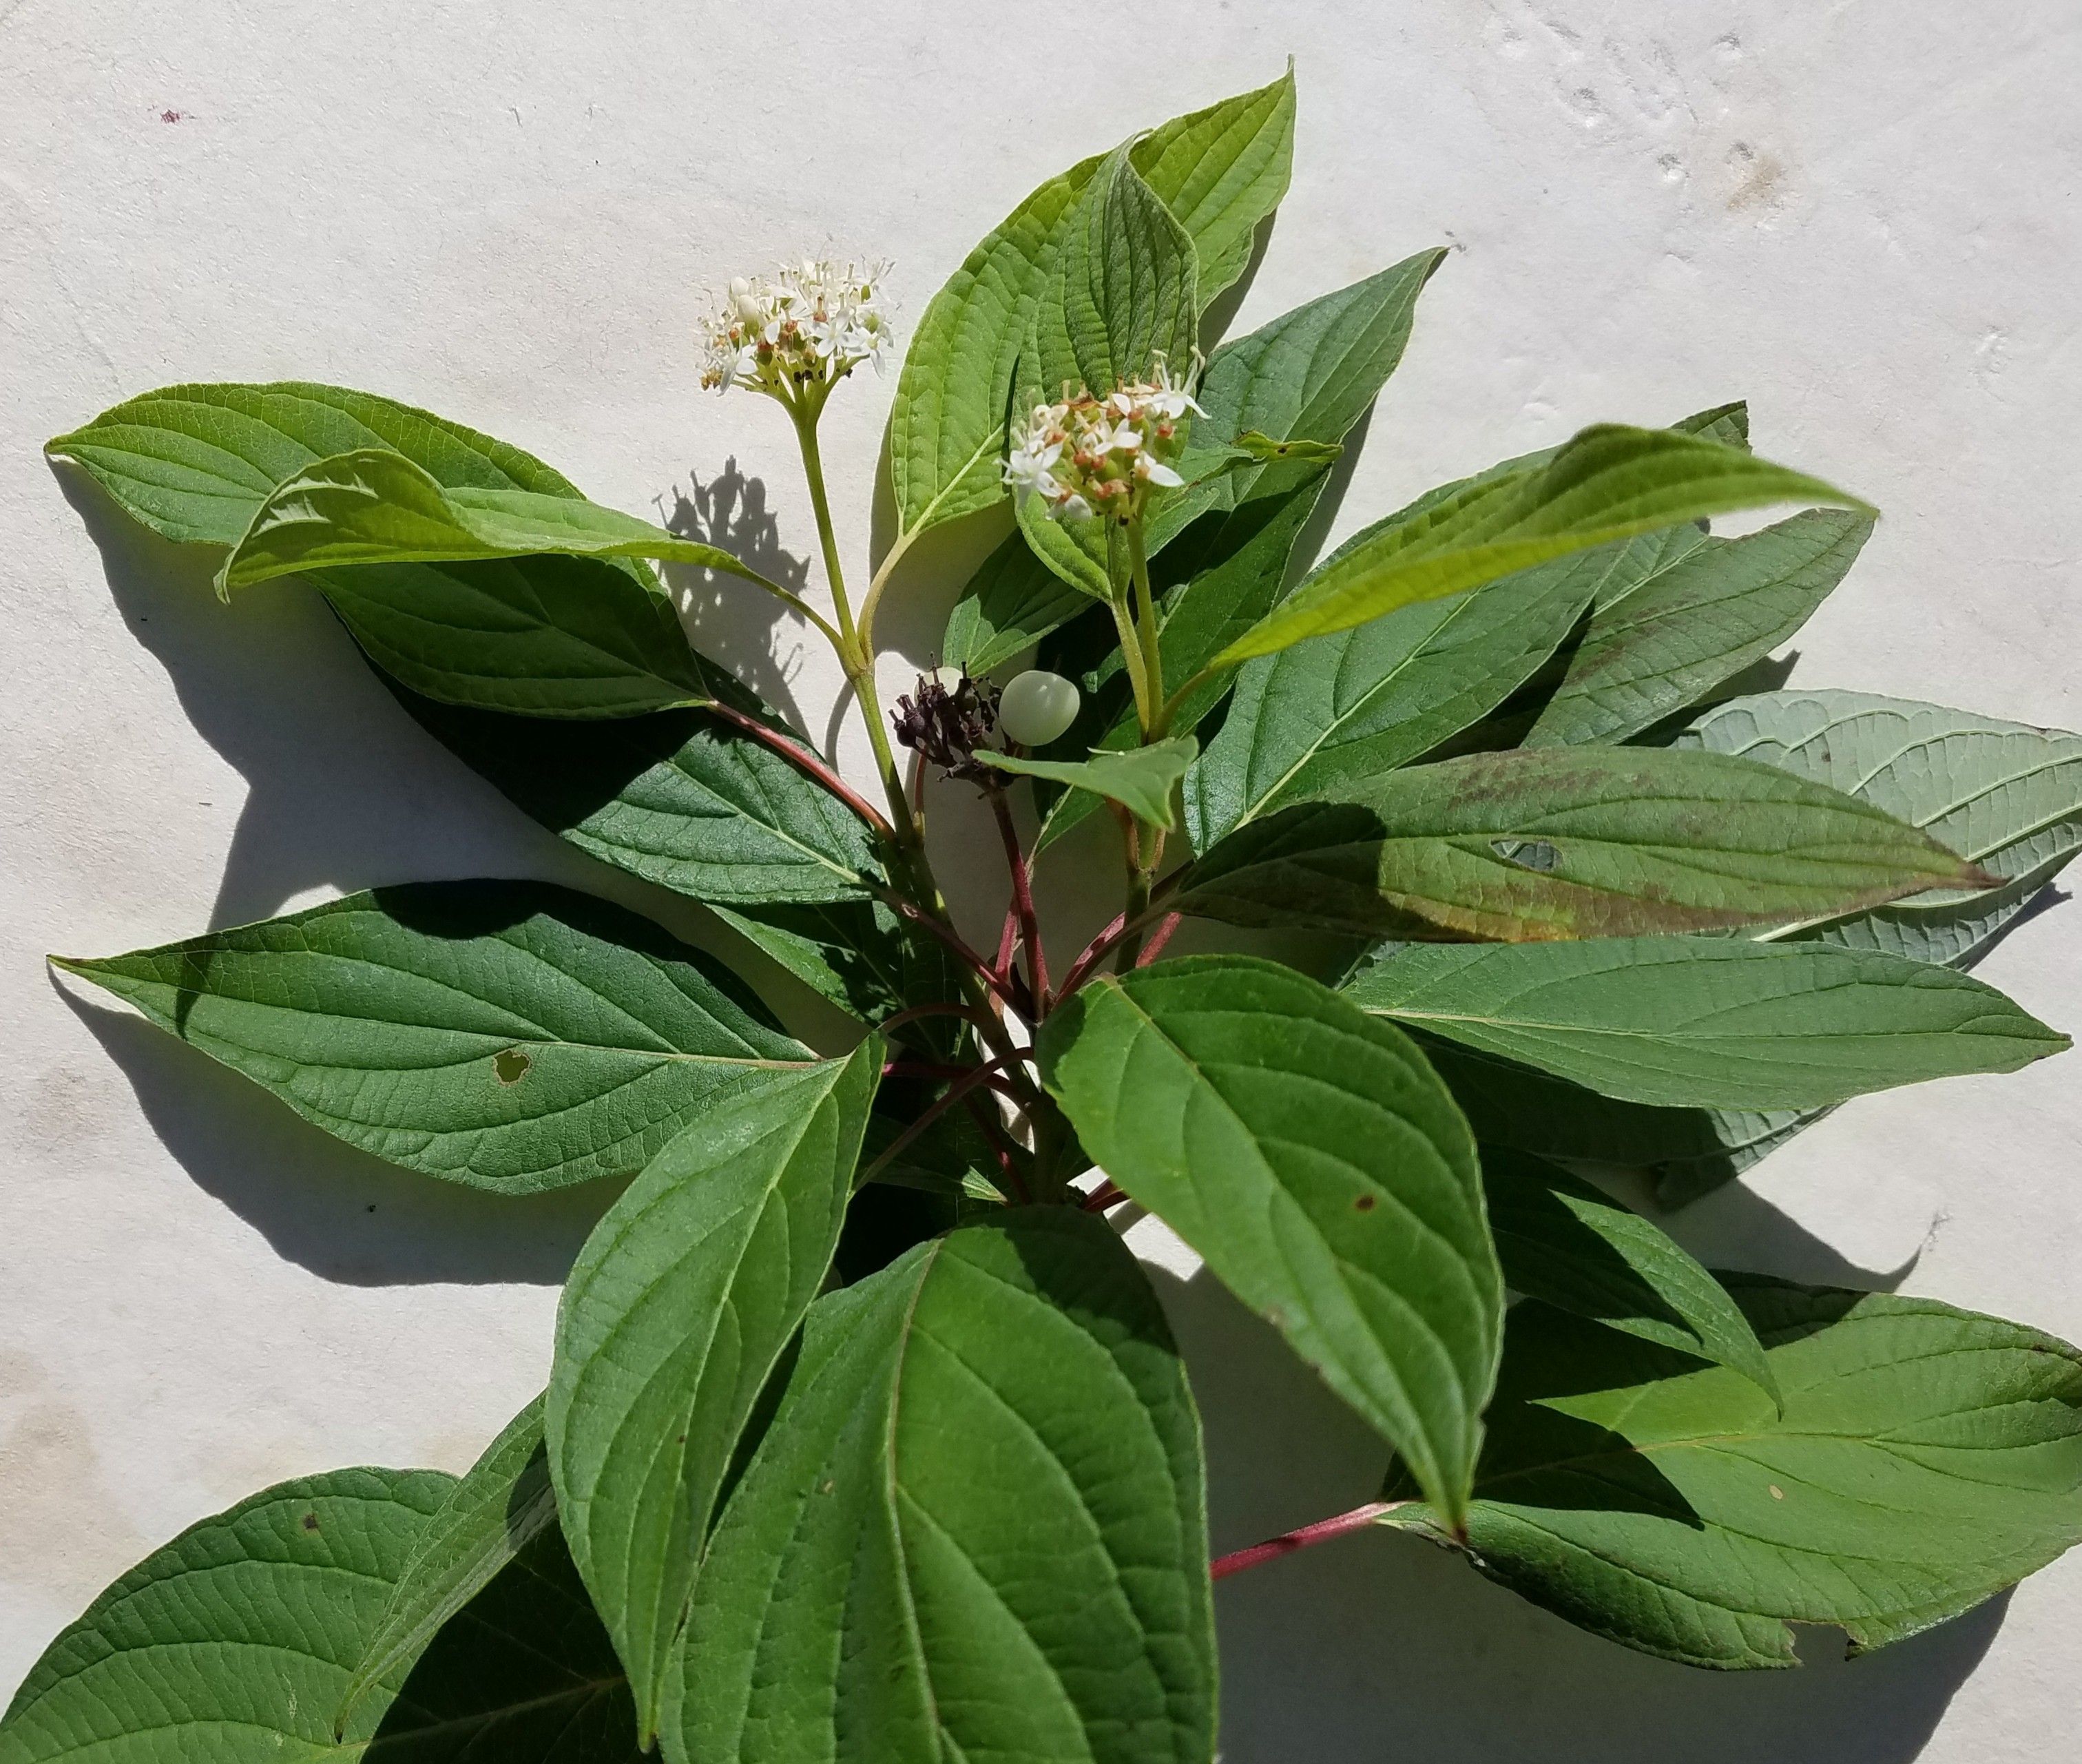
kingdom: Plantae
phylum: Tracheophyta
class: Magnoliopsida
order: Cornales
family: Cornaceae
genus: Cornus
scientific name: Cornus sericea
